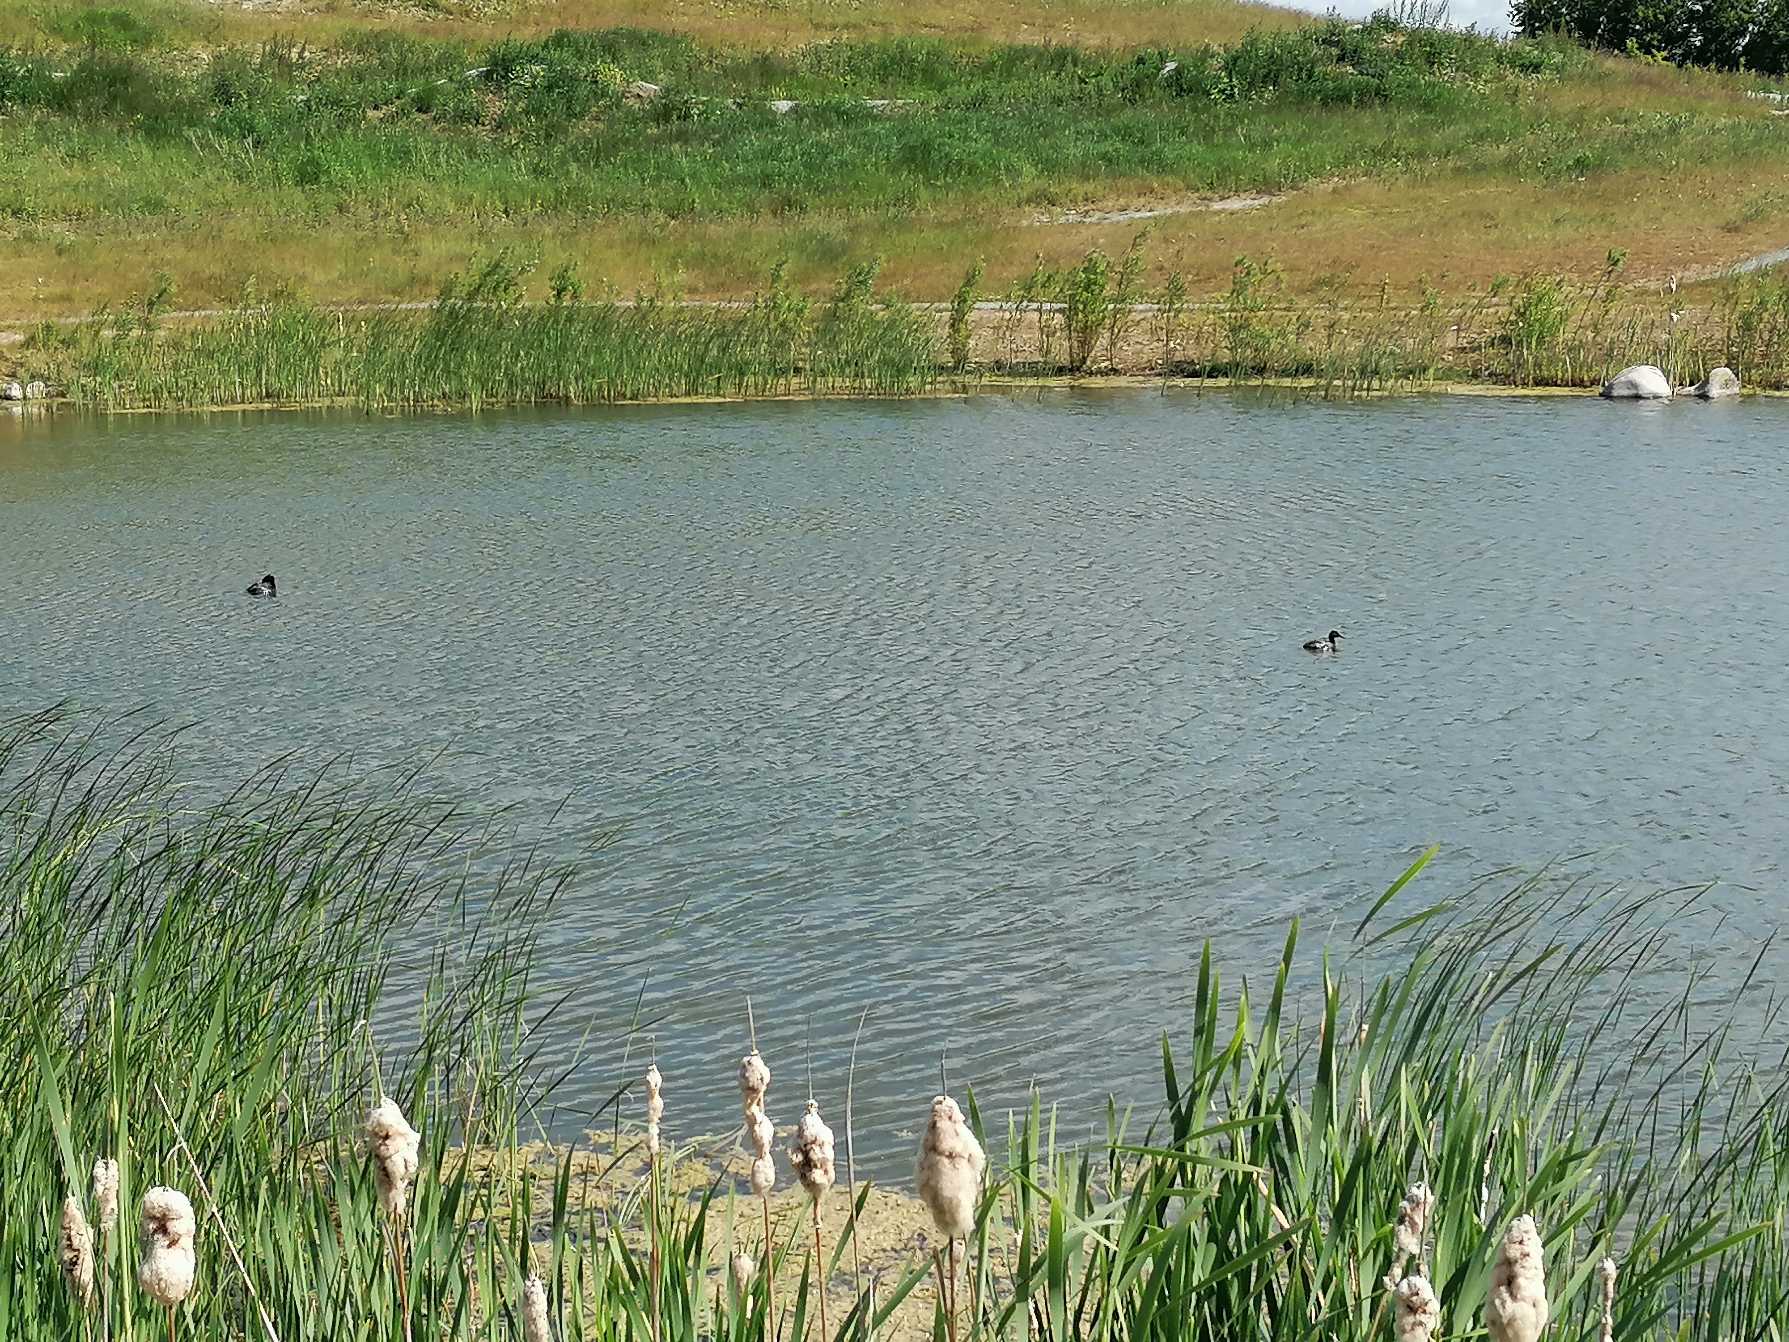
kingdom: Animalia
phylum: Chordata
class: Aves
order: Podicipediformes
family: Podicipedidae
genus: Podiceps
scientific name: Podiceps grisegena
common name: Gråstrubet lappedykker
